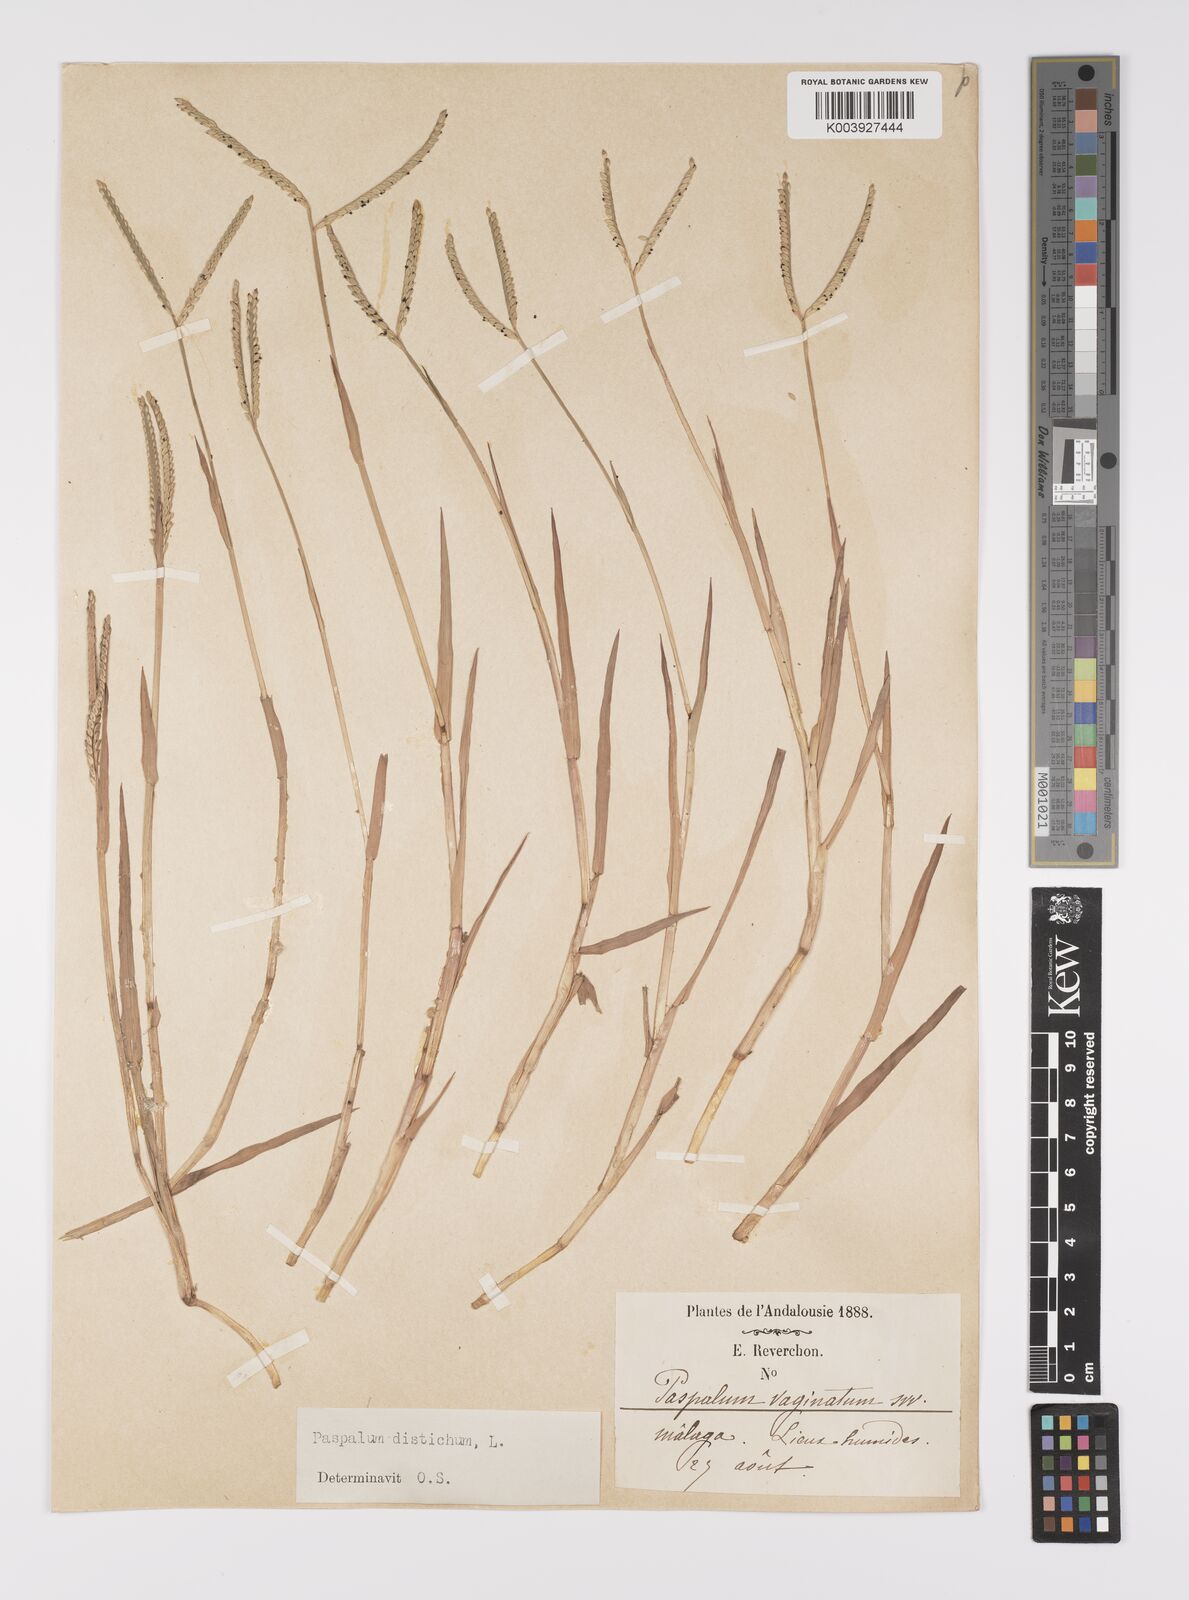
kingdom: Plantae
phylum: Tracheophyta
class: Liliopsida
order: Poales
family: Poaceae
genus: Paspalum
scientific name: Paspalum distichum
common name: Knotgrass
